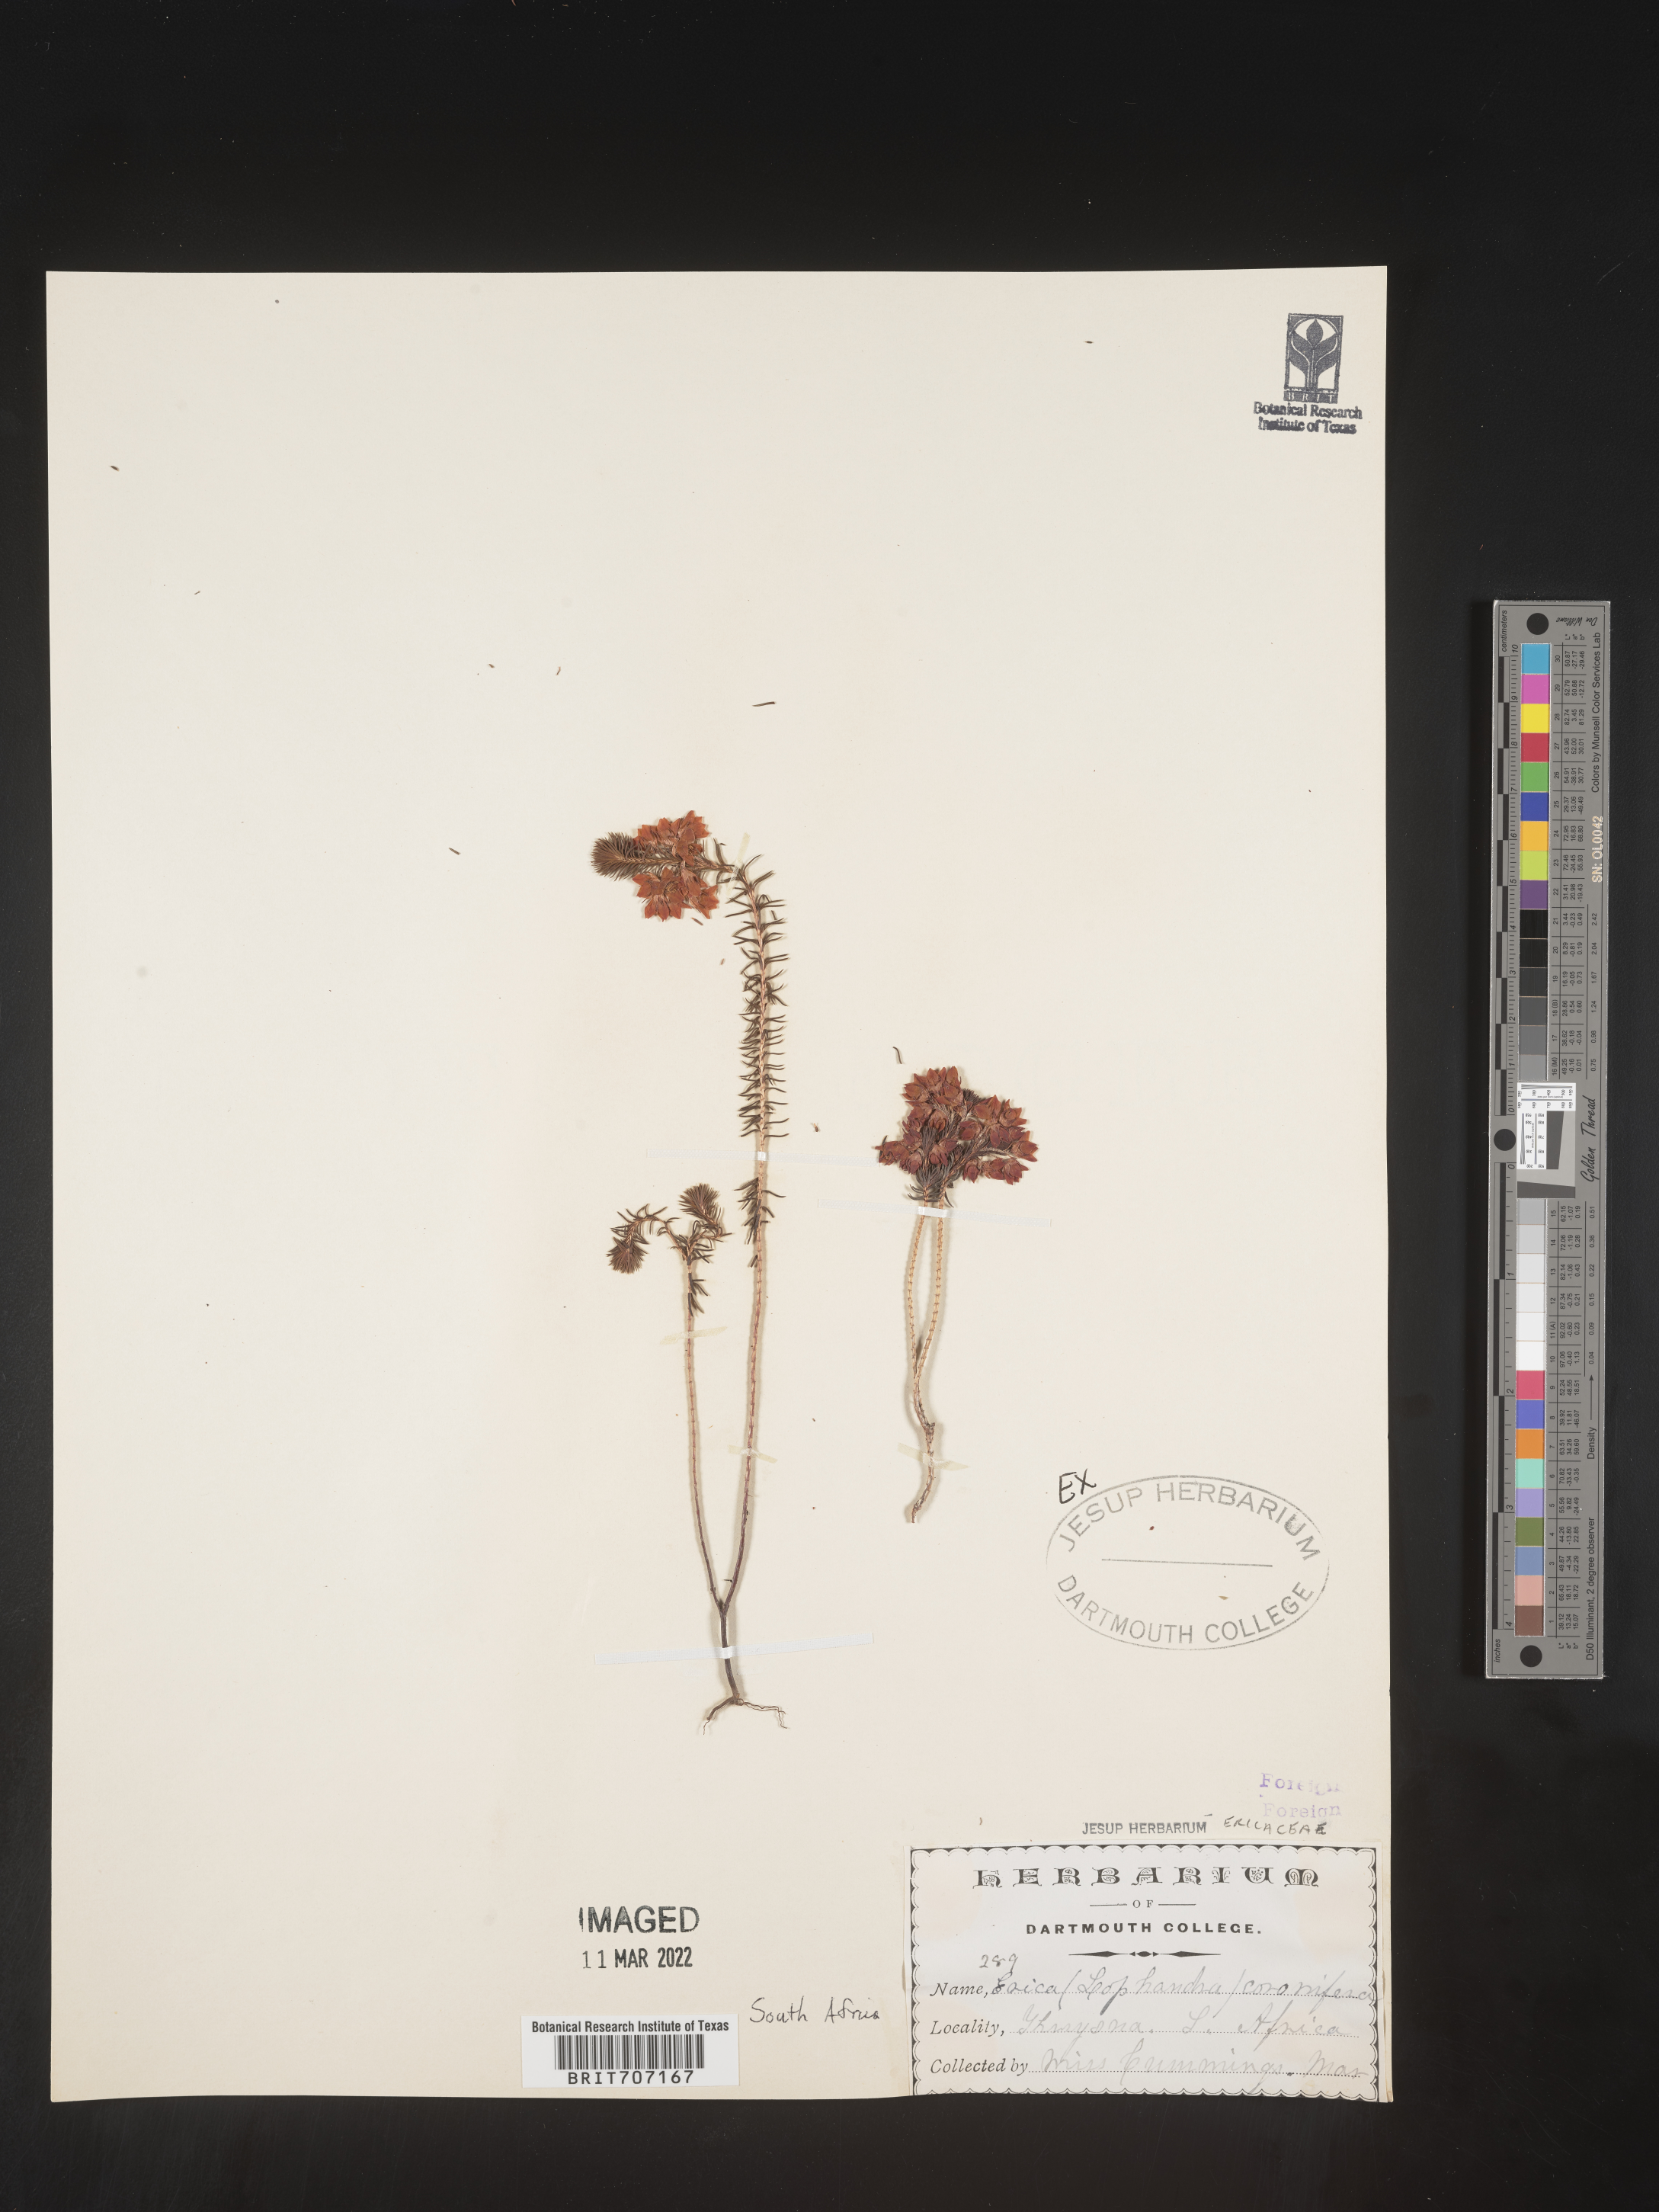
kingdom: Plantae
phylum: Tracheophyta
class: Magnoliopsida
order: Ericales
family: Ericaceae
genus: Erica
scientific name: Erica
